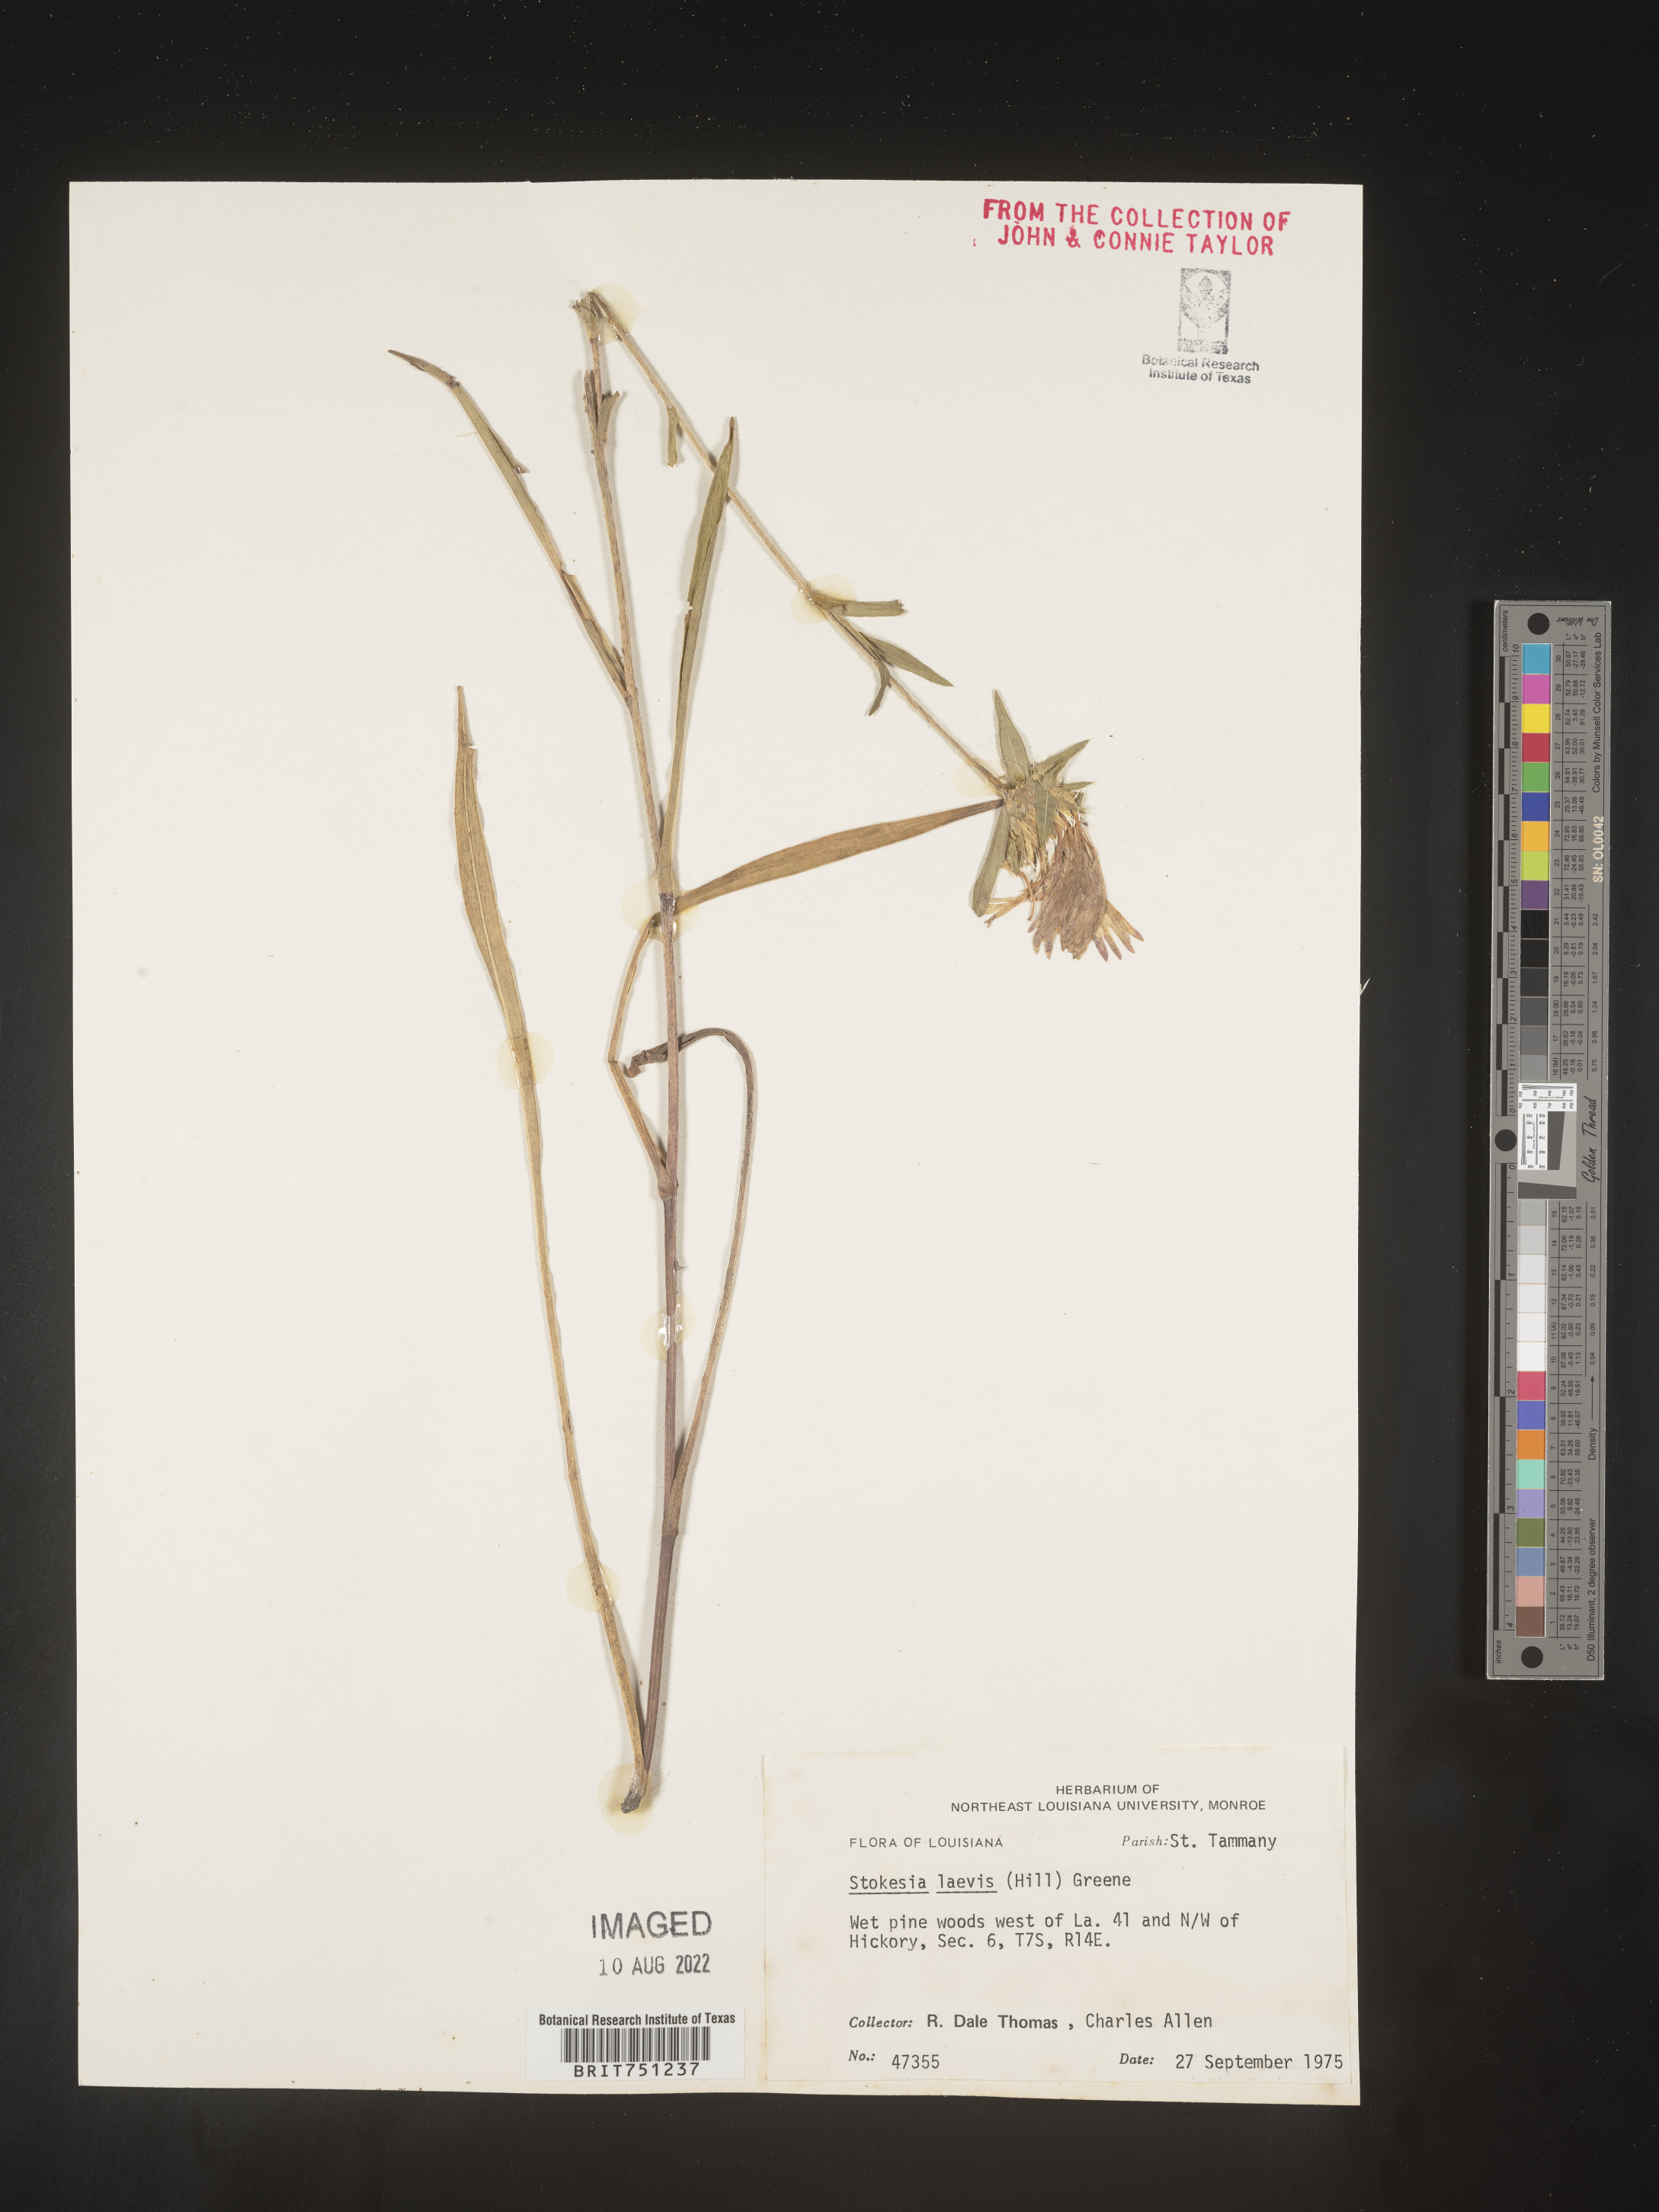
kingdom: Plantae
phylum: Tracheophyta
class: Magnoliopsida
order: Asterales
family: Asteraceae
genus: Stokesia
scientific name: Stokesia
